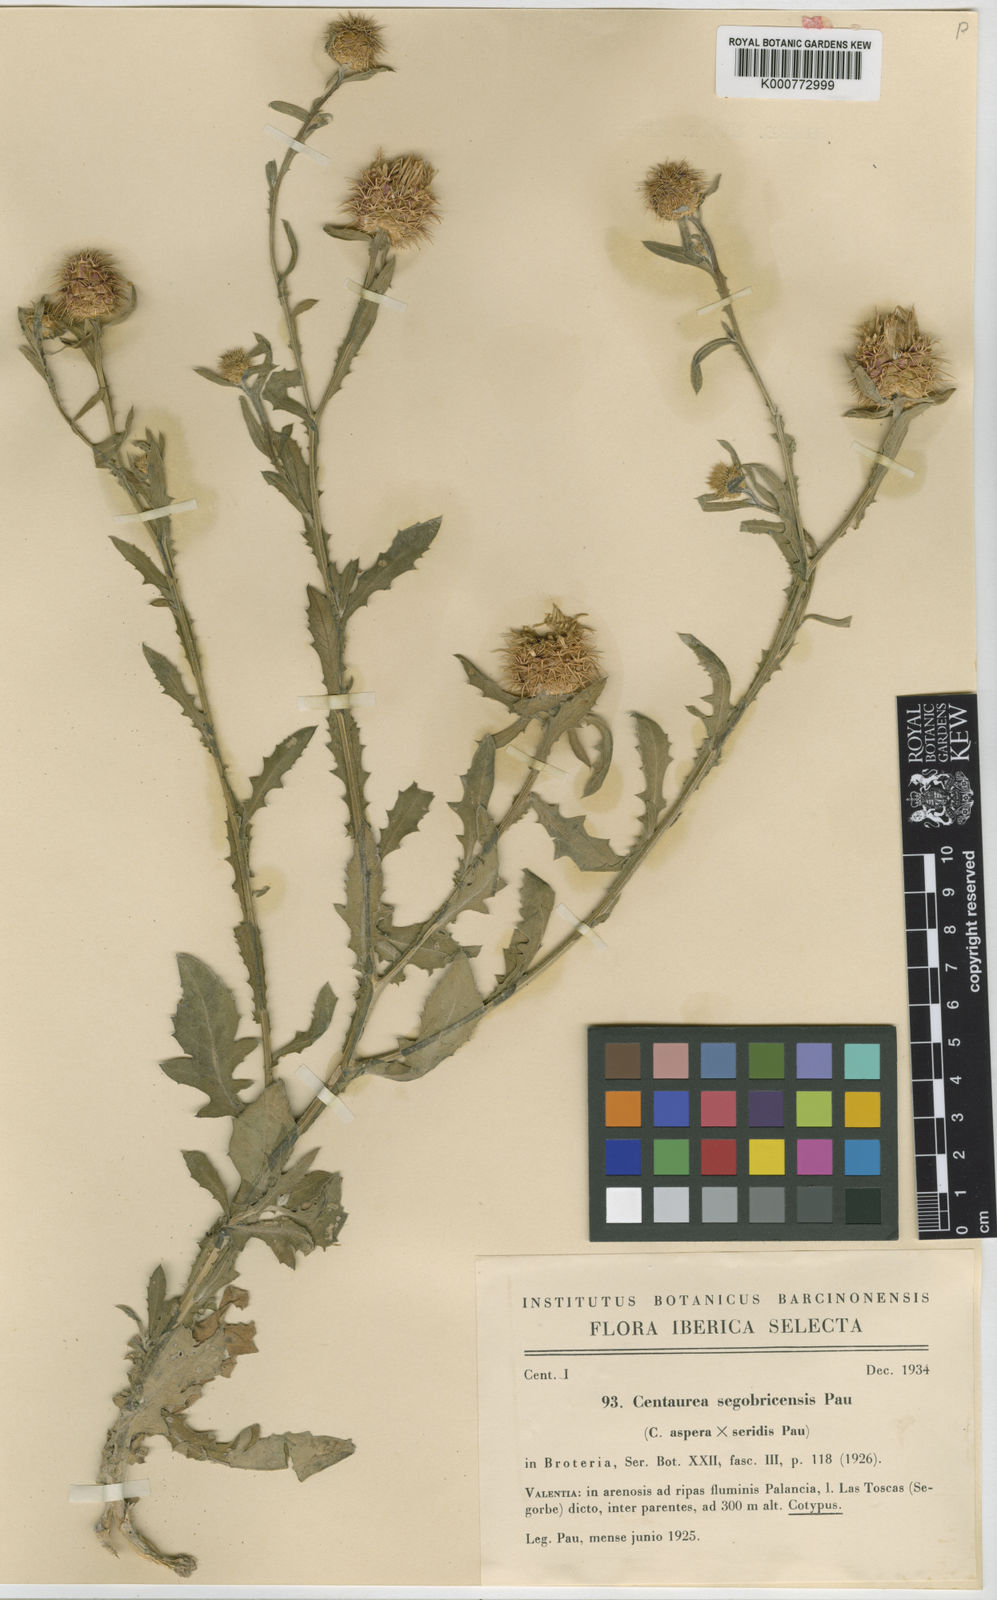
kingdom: Plantae
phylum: Tracheophyta
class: Magnoliopsida
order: Asterales
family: Asteraceae
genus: Centaurea
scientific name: Centaurea maritima
